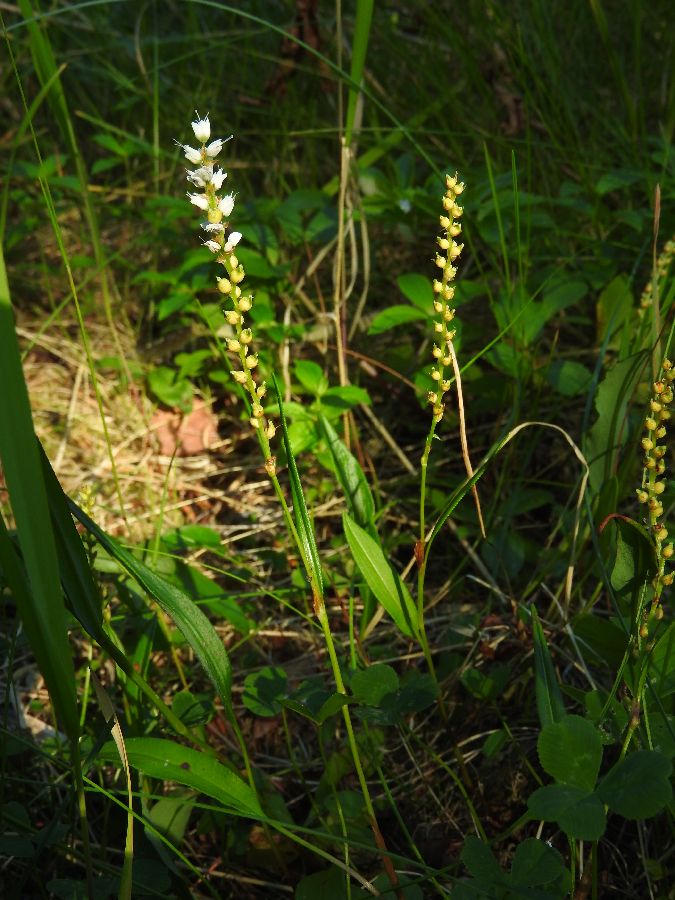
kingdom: Plantae
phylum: Tracheophyta
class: Magnoliopsida
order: Caryophyllales
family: Polygonaceae
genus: Bistorta
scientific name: Bistorta vivipara
